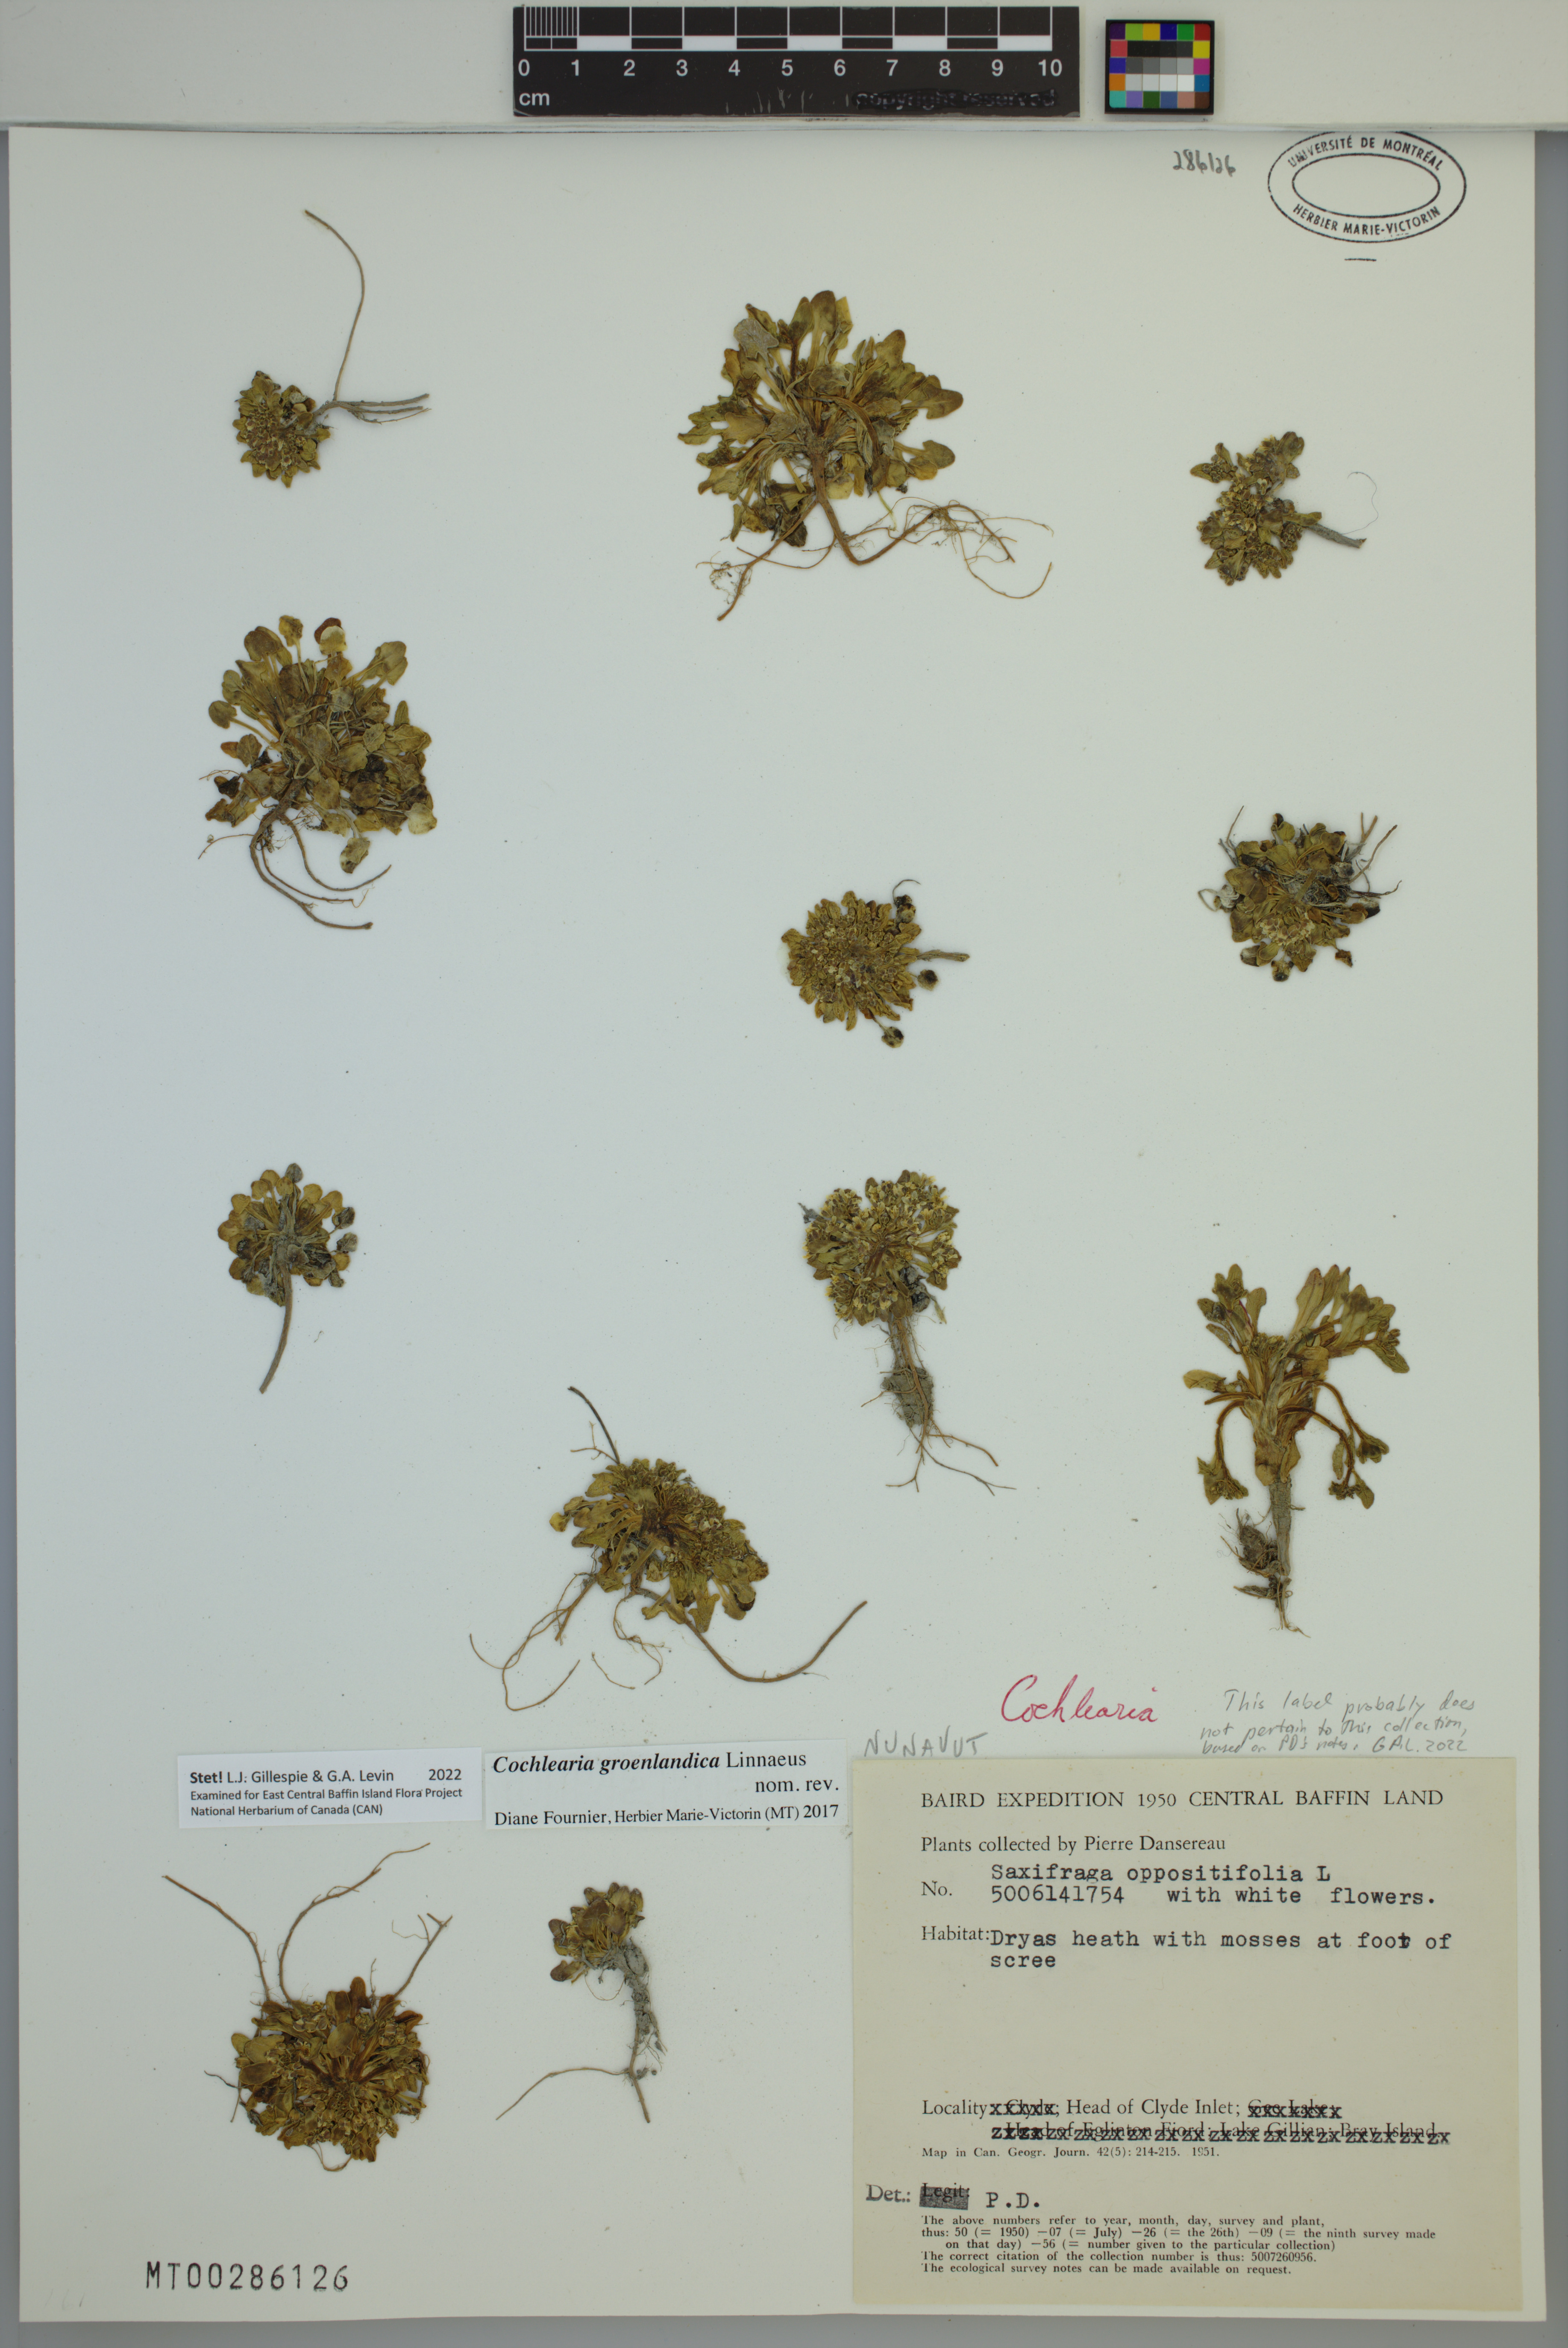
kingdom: Plantae
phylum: Tracheophyta
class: Magnoliopsida
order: Brassicales
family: Brassicaceae
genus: Cochlearia
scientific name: Cochlearia groenlandica
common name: Danish scurvygrass
